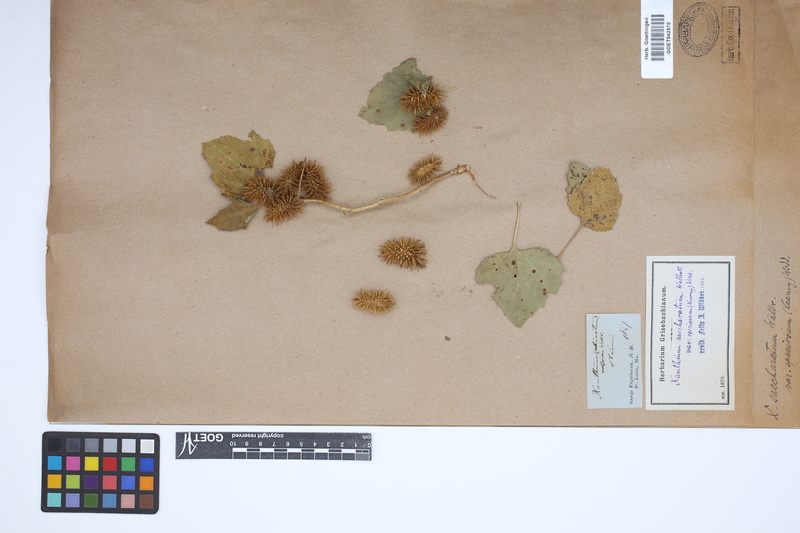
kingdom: Plantae
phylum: Tracheophyta
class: Magnoliopsida
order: Asterales
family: Asteraceae
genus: Xanthium
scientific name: Xanthium orientale
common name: Californian burr
